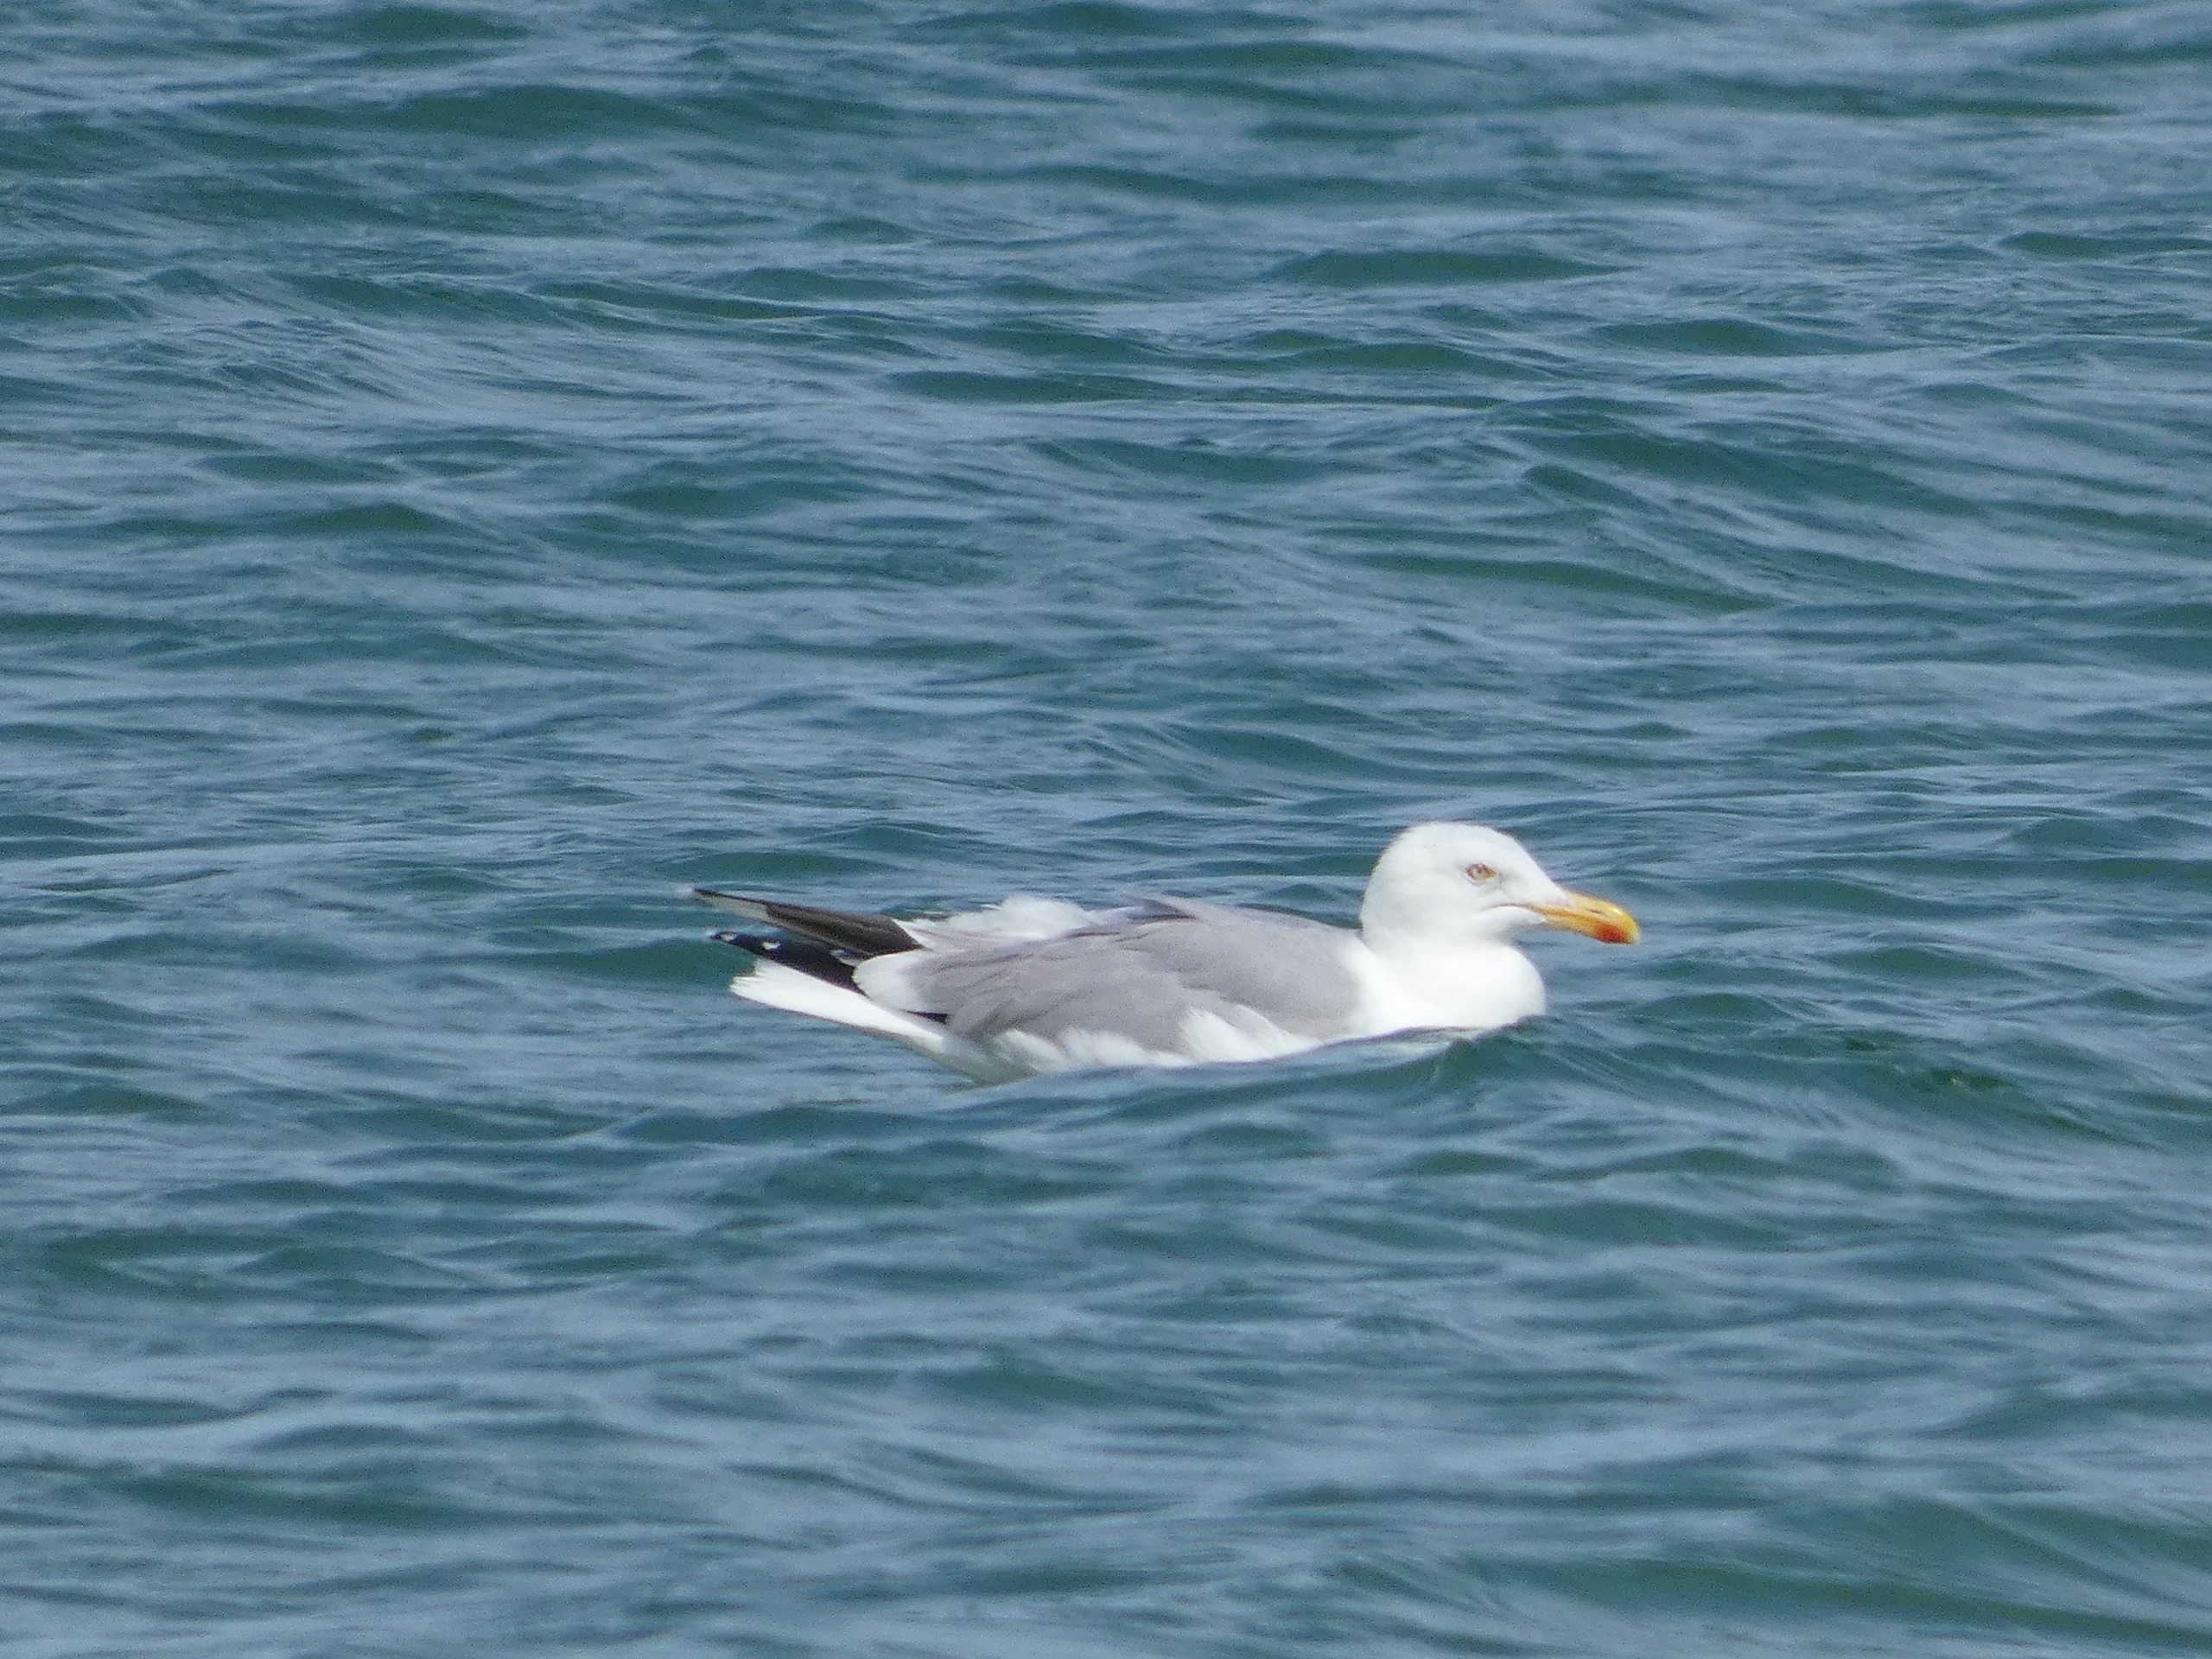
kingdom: Animalia
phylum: Chordata
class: Aves
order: Charadriiformes
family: Laridae
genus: Larus
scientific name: Larus argentatus
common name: Sølvmåge
